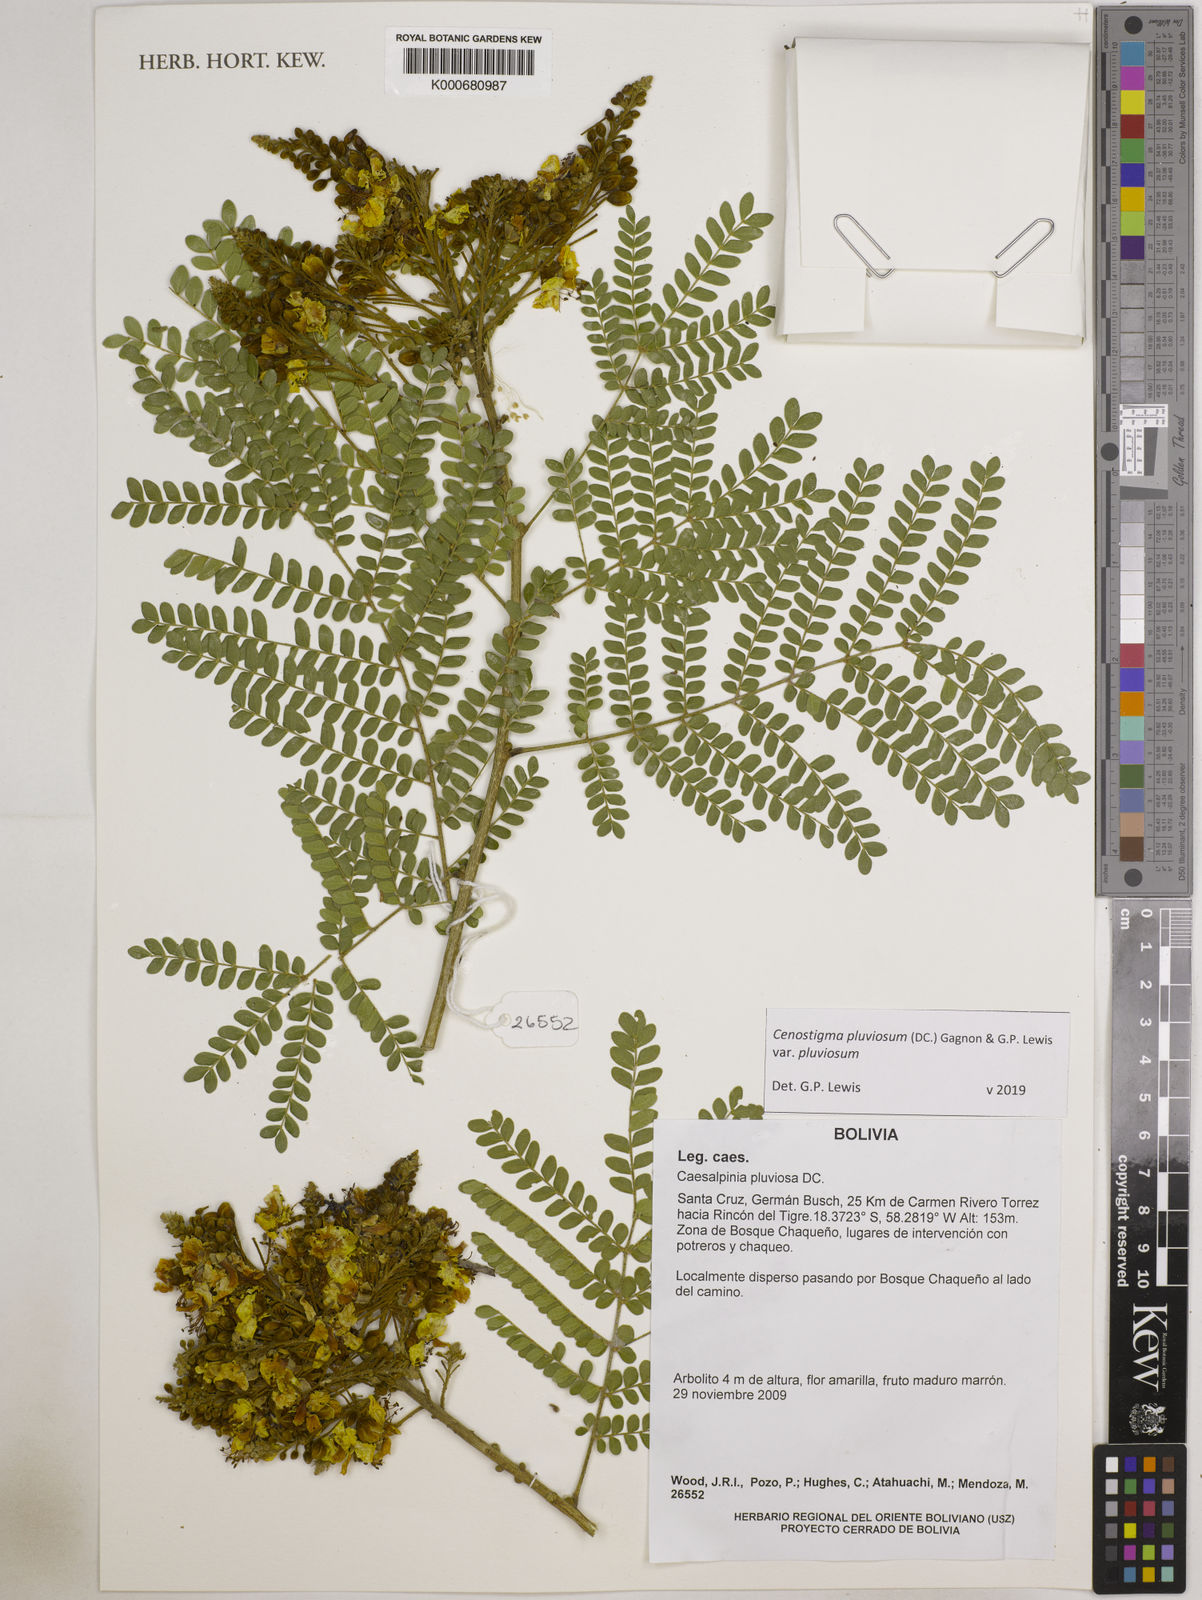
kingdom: Plantae
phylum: Tracheophyta
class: Magnoliopsida
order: Fabales
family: Fabaceae
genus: Cenostigma
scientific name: Cenostigma pluviosum
